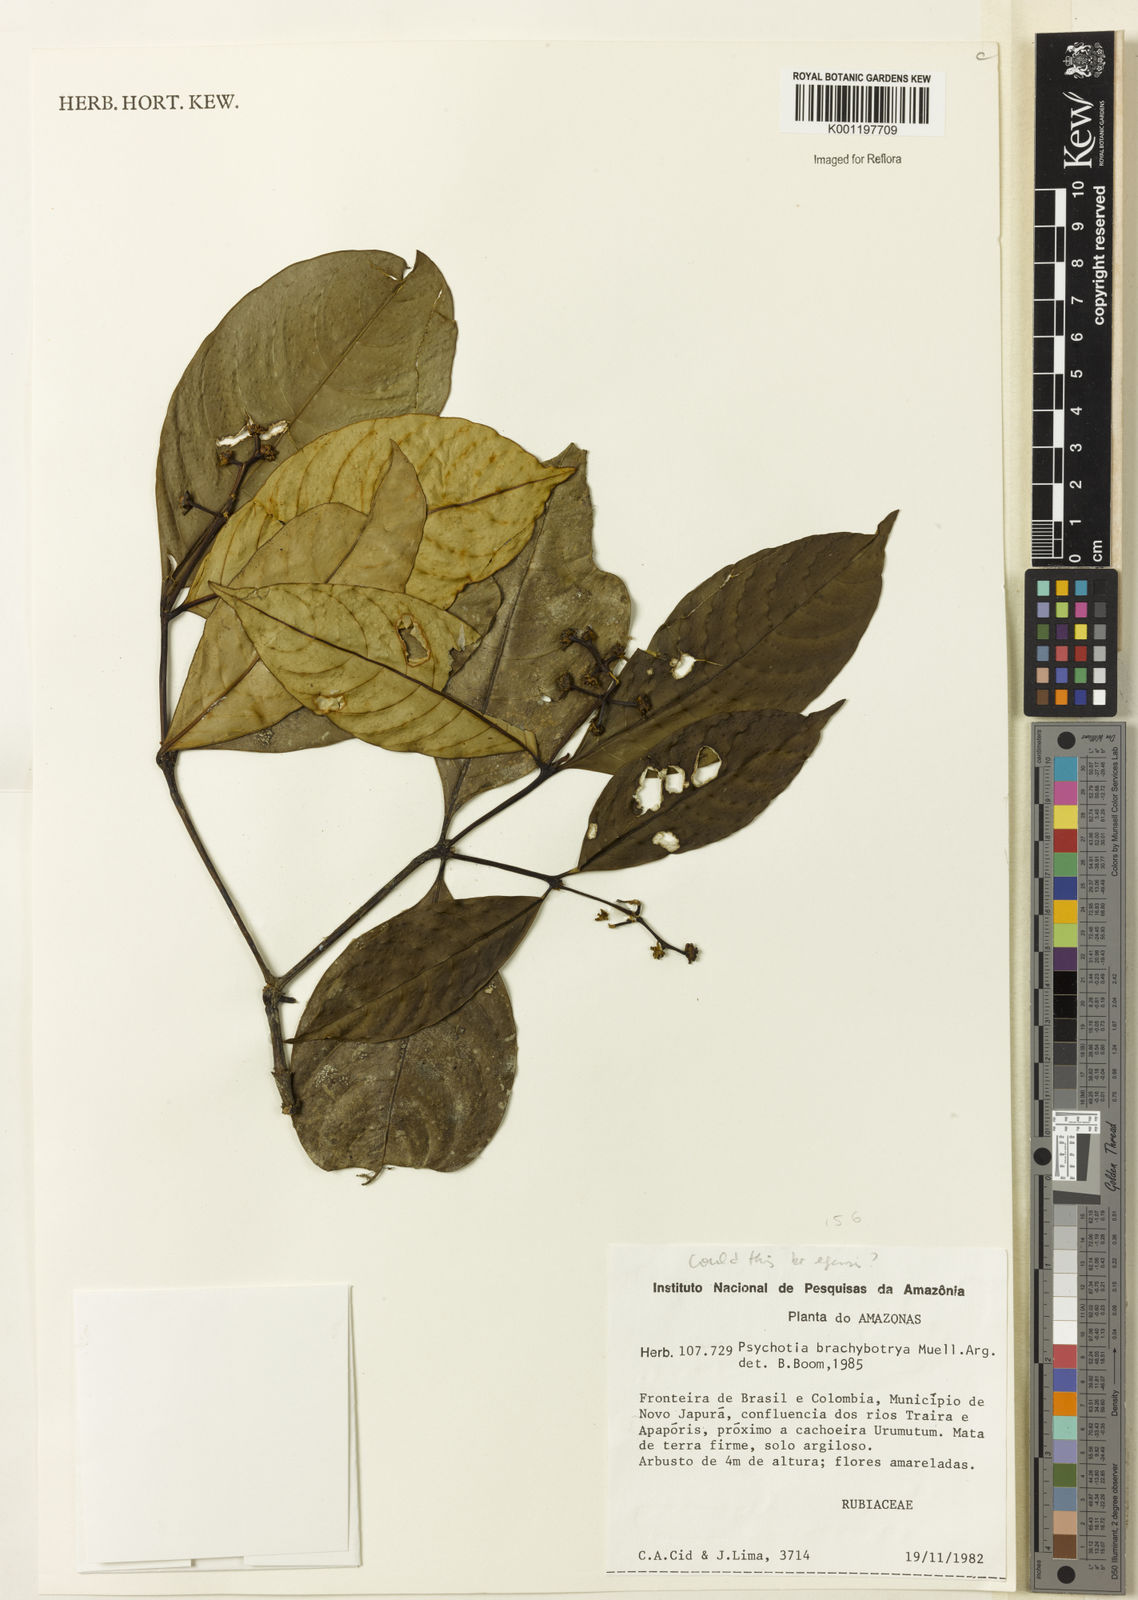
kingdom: Plantae
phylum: Tracheophyta
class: Magnoliopsida
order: Gentianales
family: Rubiaceae
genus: Psychotria
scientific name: Psychotria
